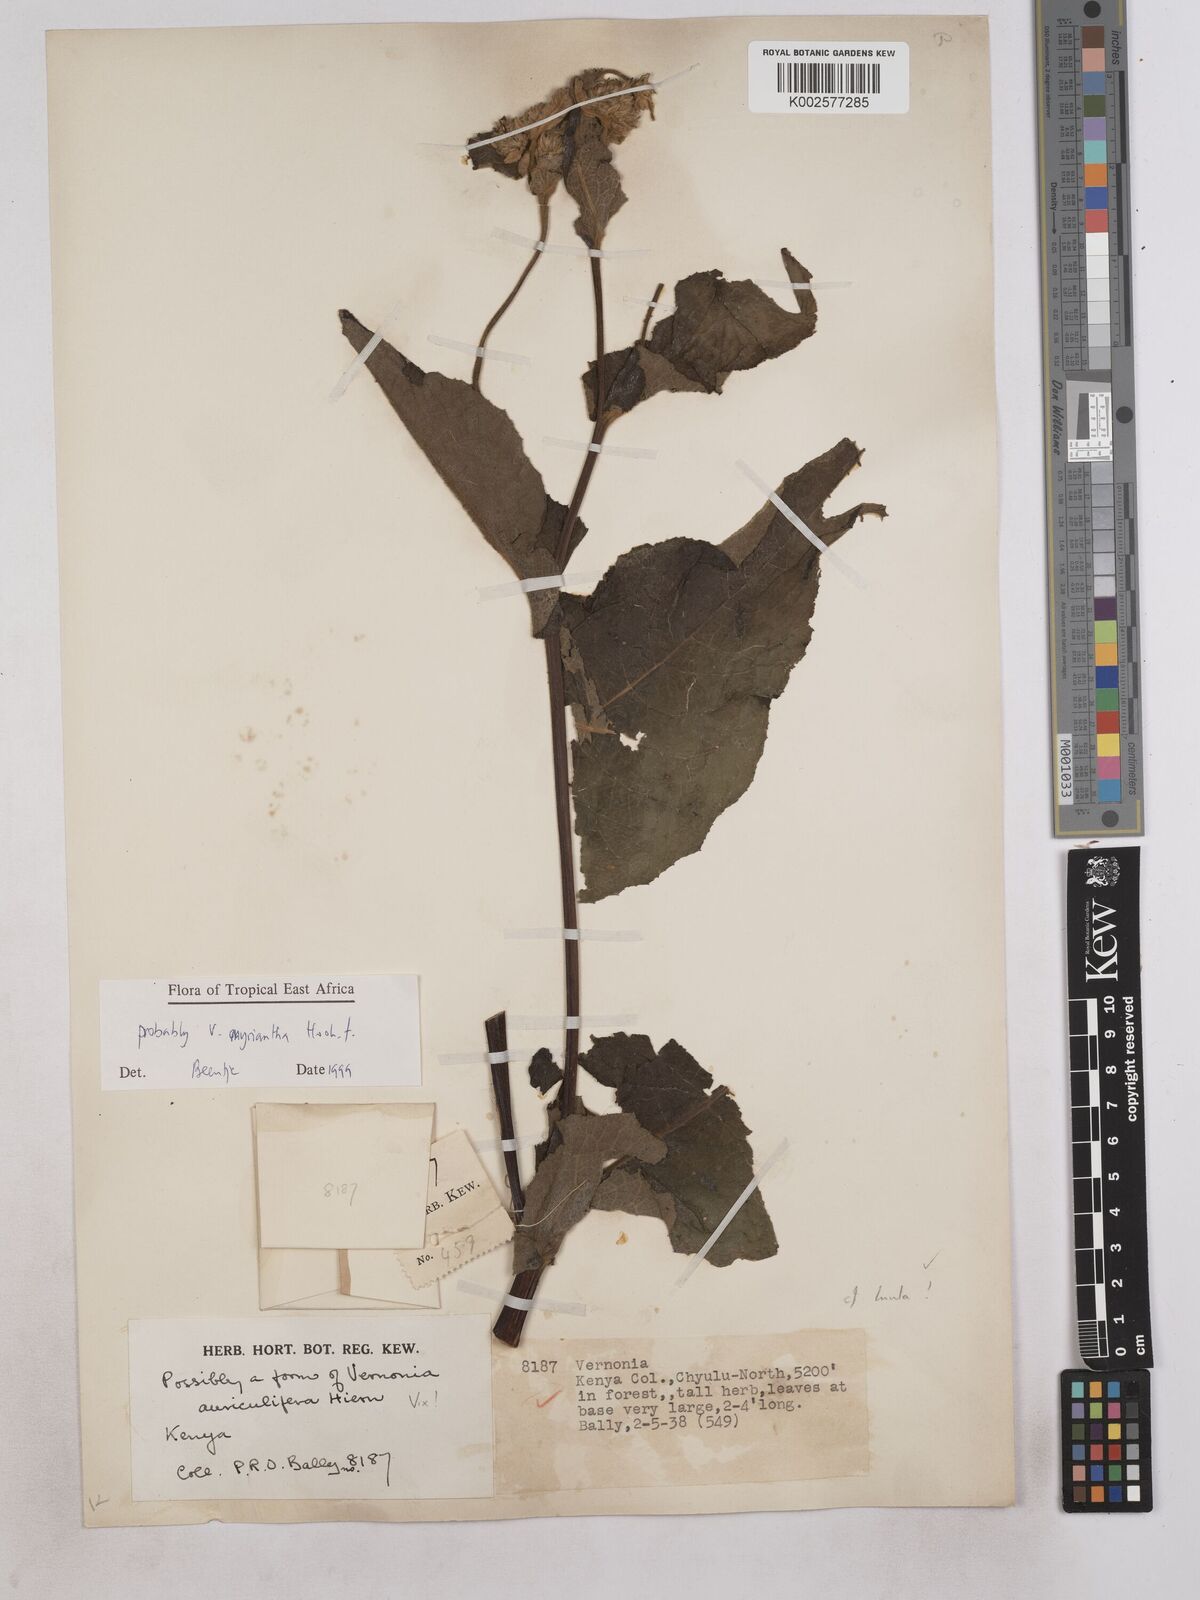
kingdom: Plantae
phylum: Tracheophyta
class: Magnoliopsida
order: Asterales
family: Asteraceae
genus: Gymnanthemum
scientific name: Gymnanthemum myrianthum
